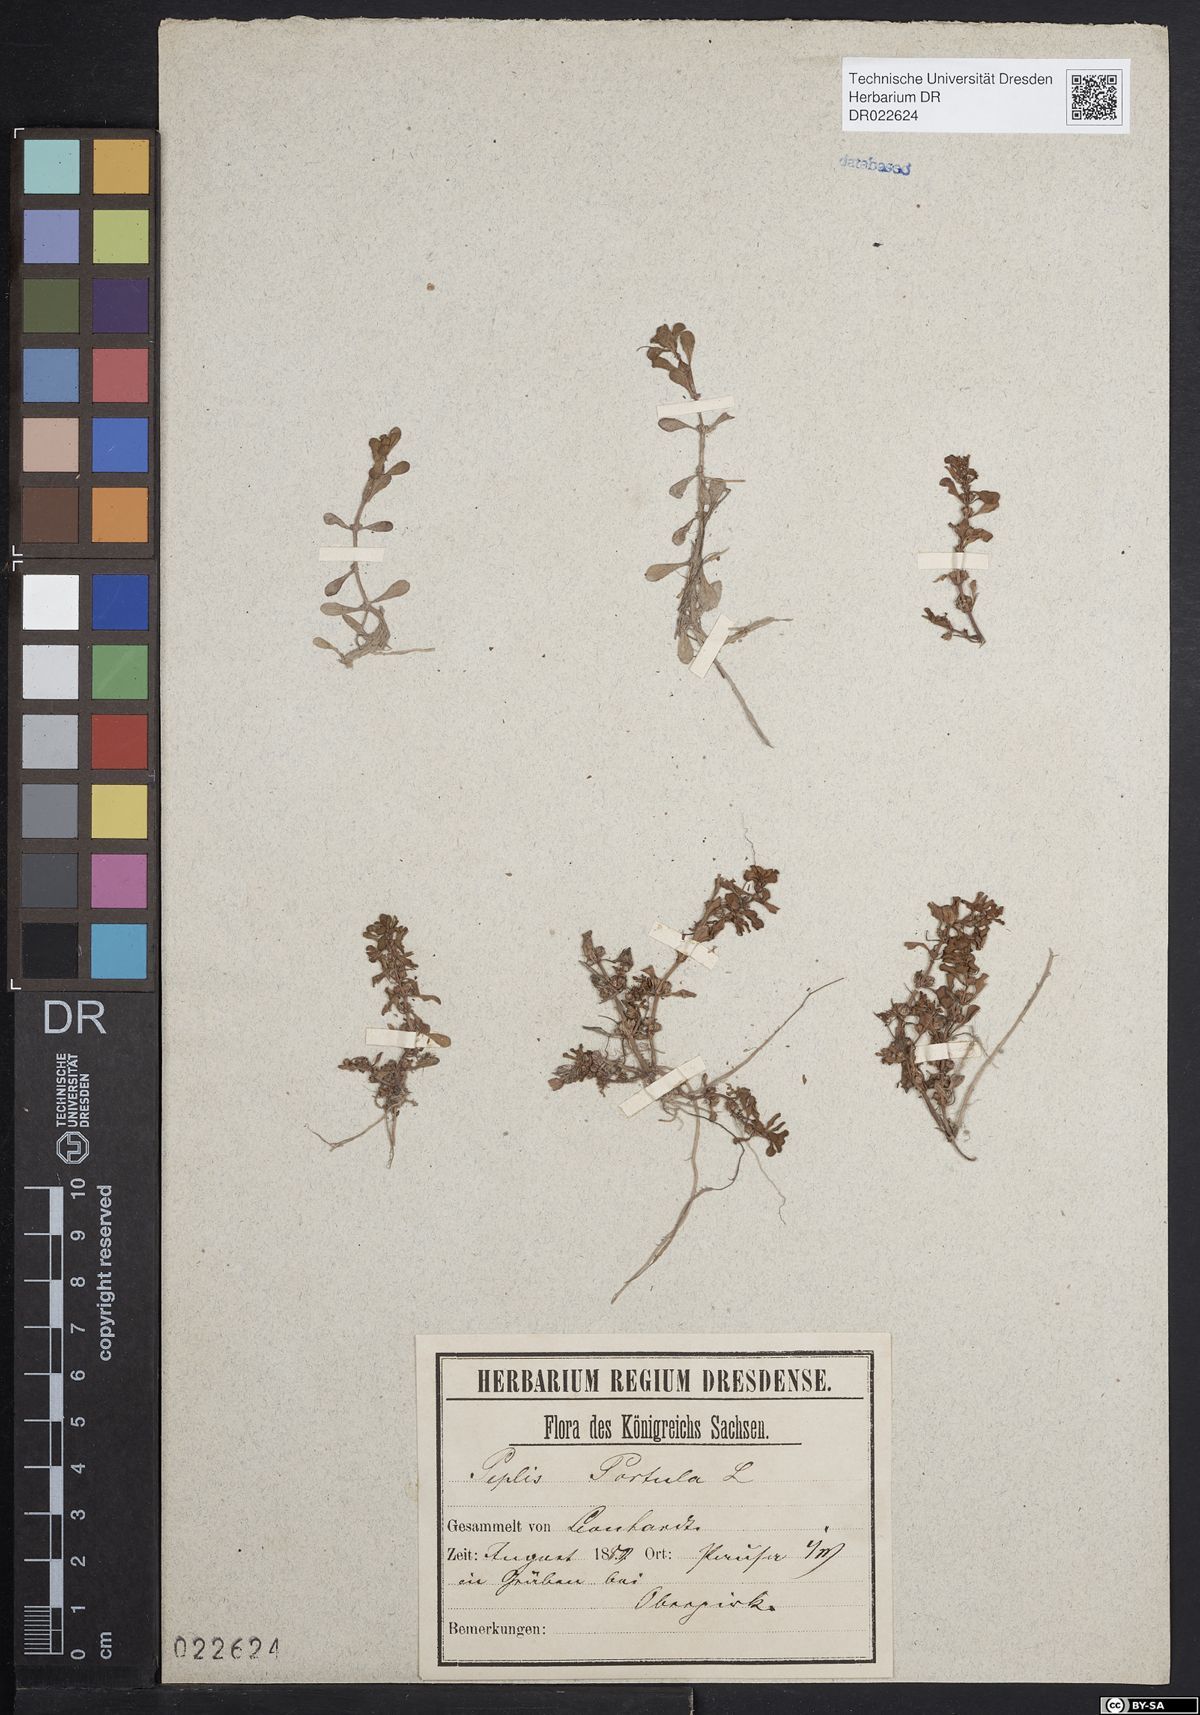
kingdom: Plantae
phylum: Tracheophyta
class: Magnoliopsida
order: Myrtales
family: Lythraceae
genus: Lythrum
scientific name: Lythrum portula
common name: Water purslane
